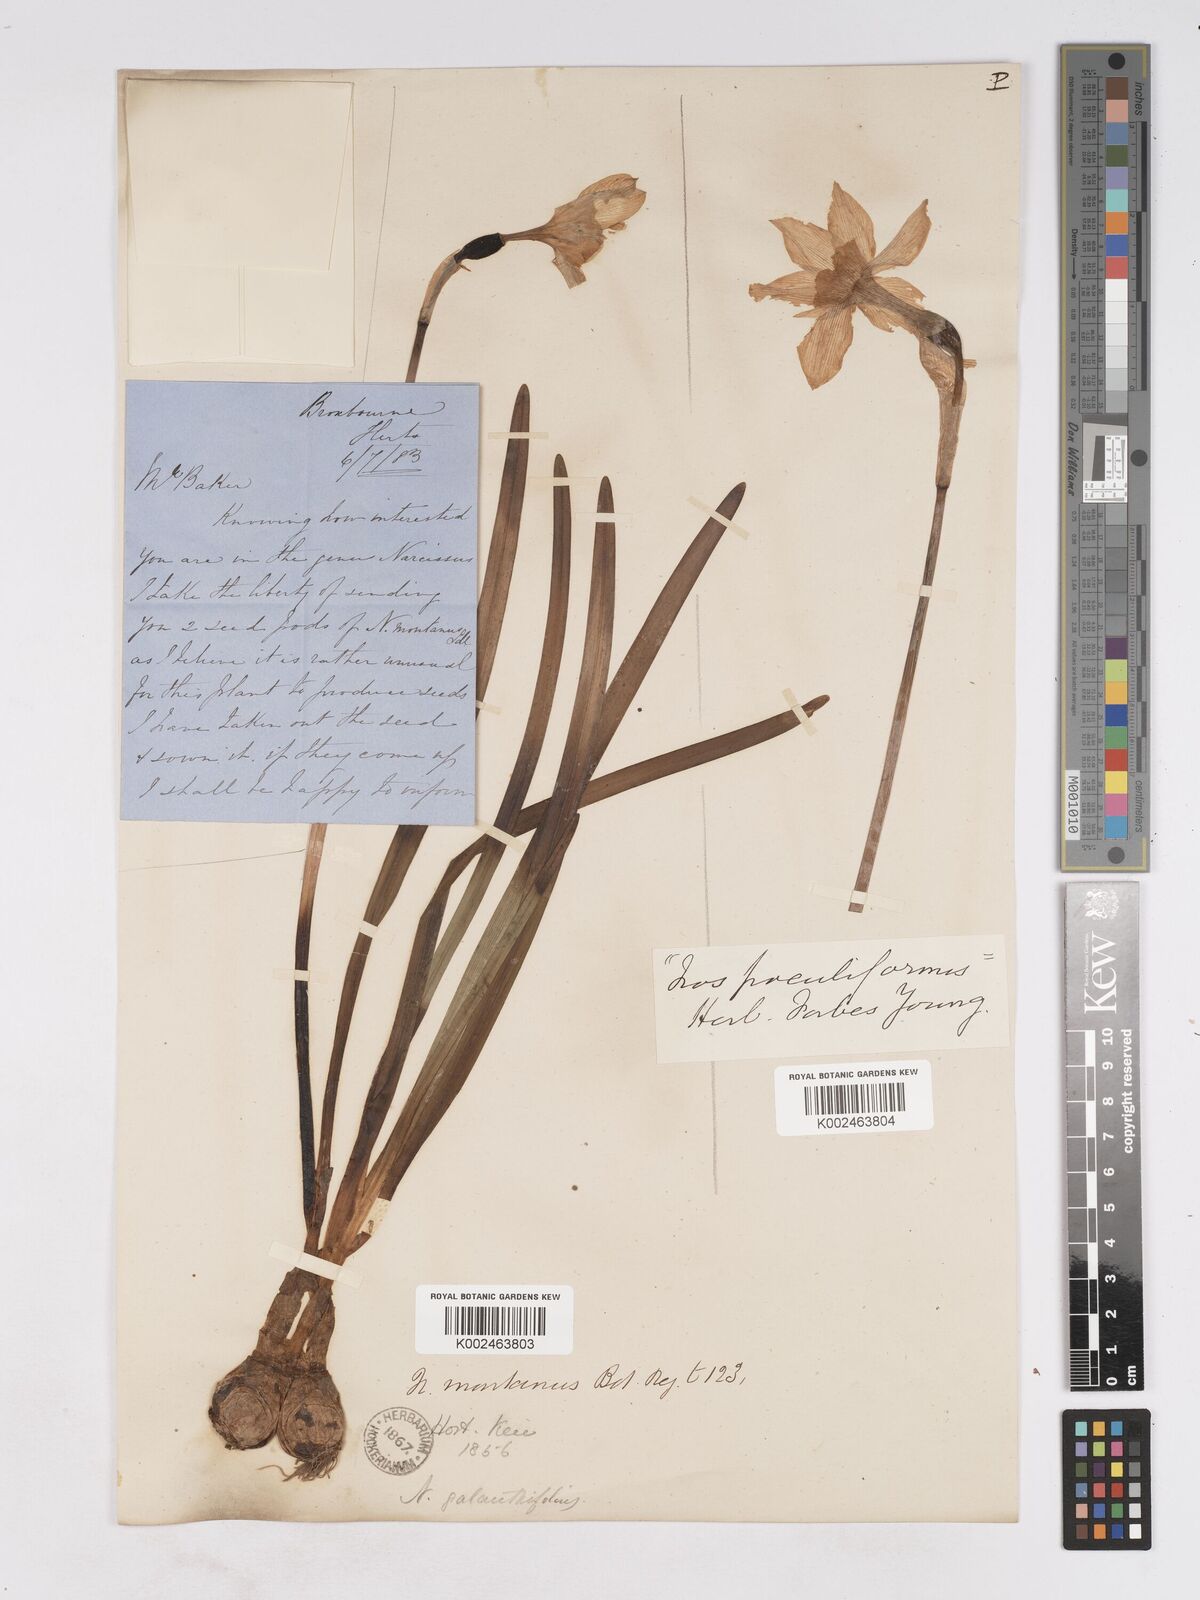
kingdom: Plantae
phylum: Tracheophyta
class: Liliopsida
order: Asparagales
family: Amaryllidaceae
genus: Narcissus
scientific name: Narcissus incomparabilis
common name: Nonesuch daffodil
